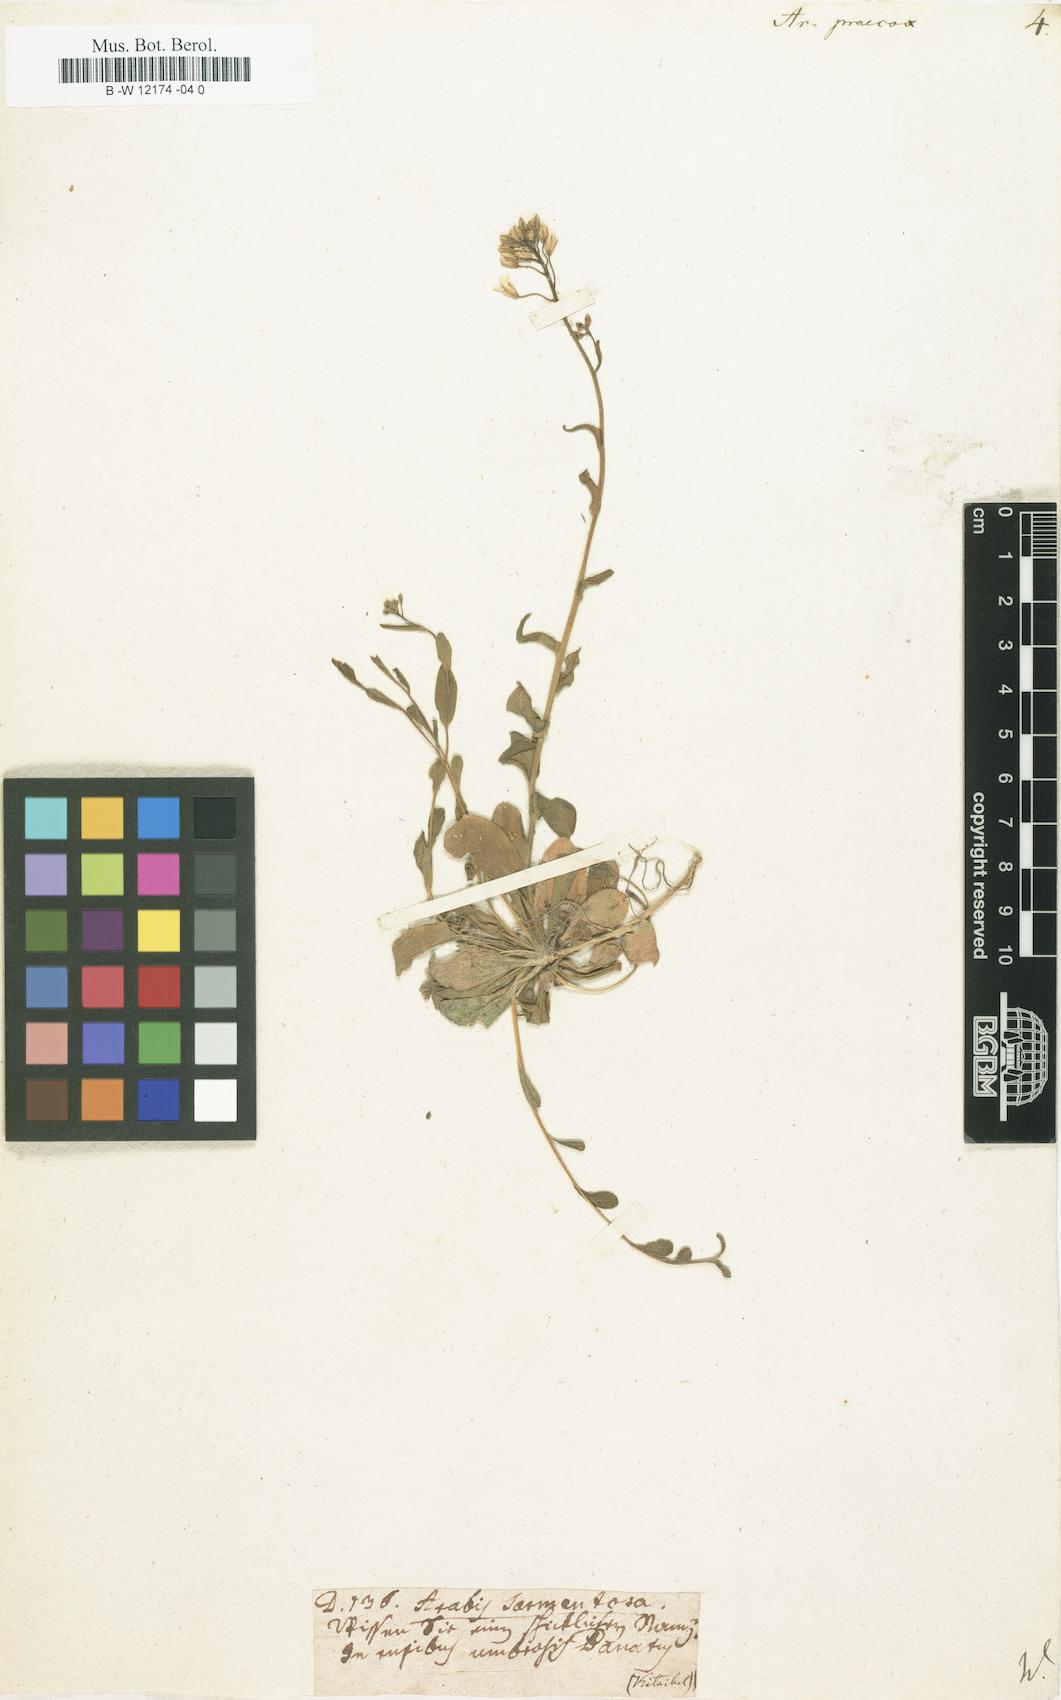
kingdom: Plantae
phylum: Tracheophyta
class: Magnoliopsida
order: Brassicales
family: Brassicaceae
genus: Arabis
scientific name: Arabis procurrens
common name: Running rockcress
